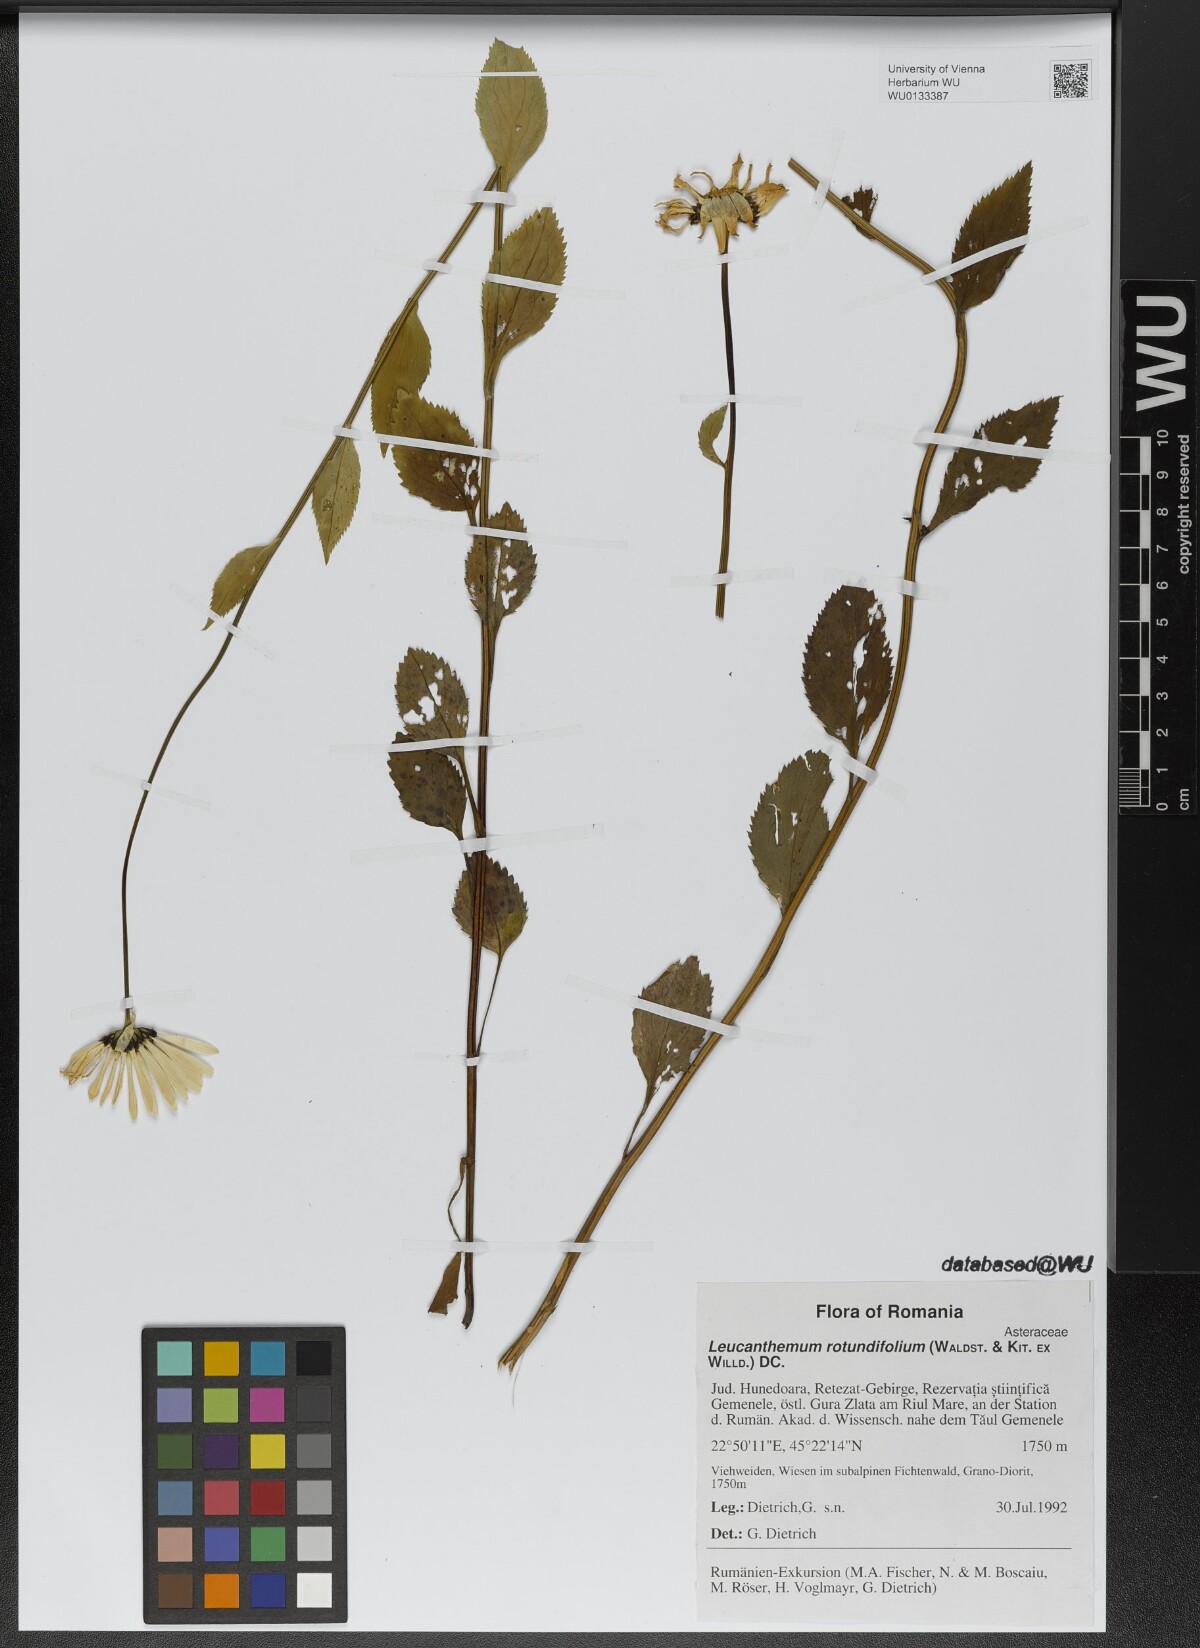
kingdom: Plantae
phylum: Tracheophyta
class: Magnoliopsida
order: Asterales
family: Asteraceae
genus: Leucanthemum
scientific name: Leucanthemum rotundifolium
